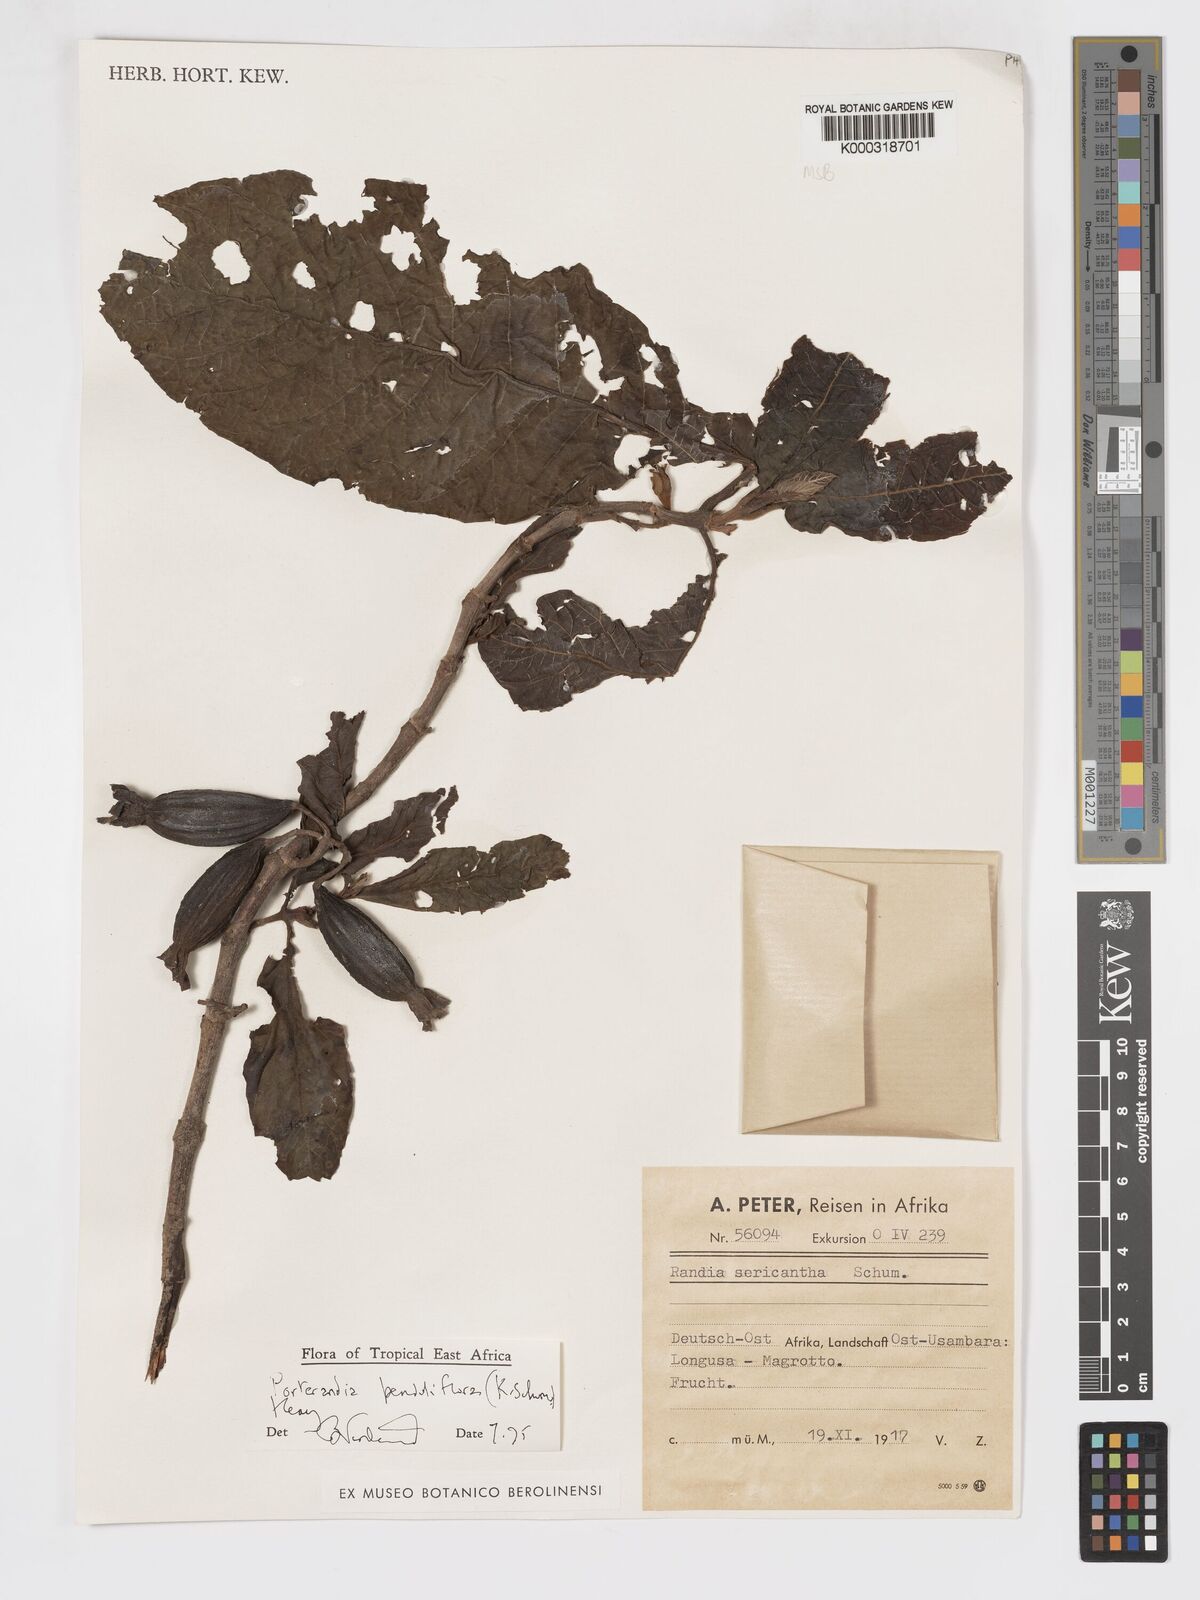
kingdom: Plantae
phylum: Tracheophyta
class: Magnoliopsida
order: Gentianales
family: Rubiaceae
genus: Aoranthe
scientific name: Aoranthe penduliflora
